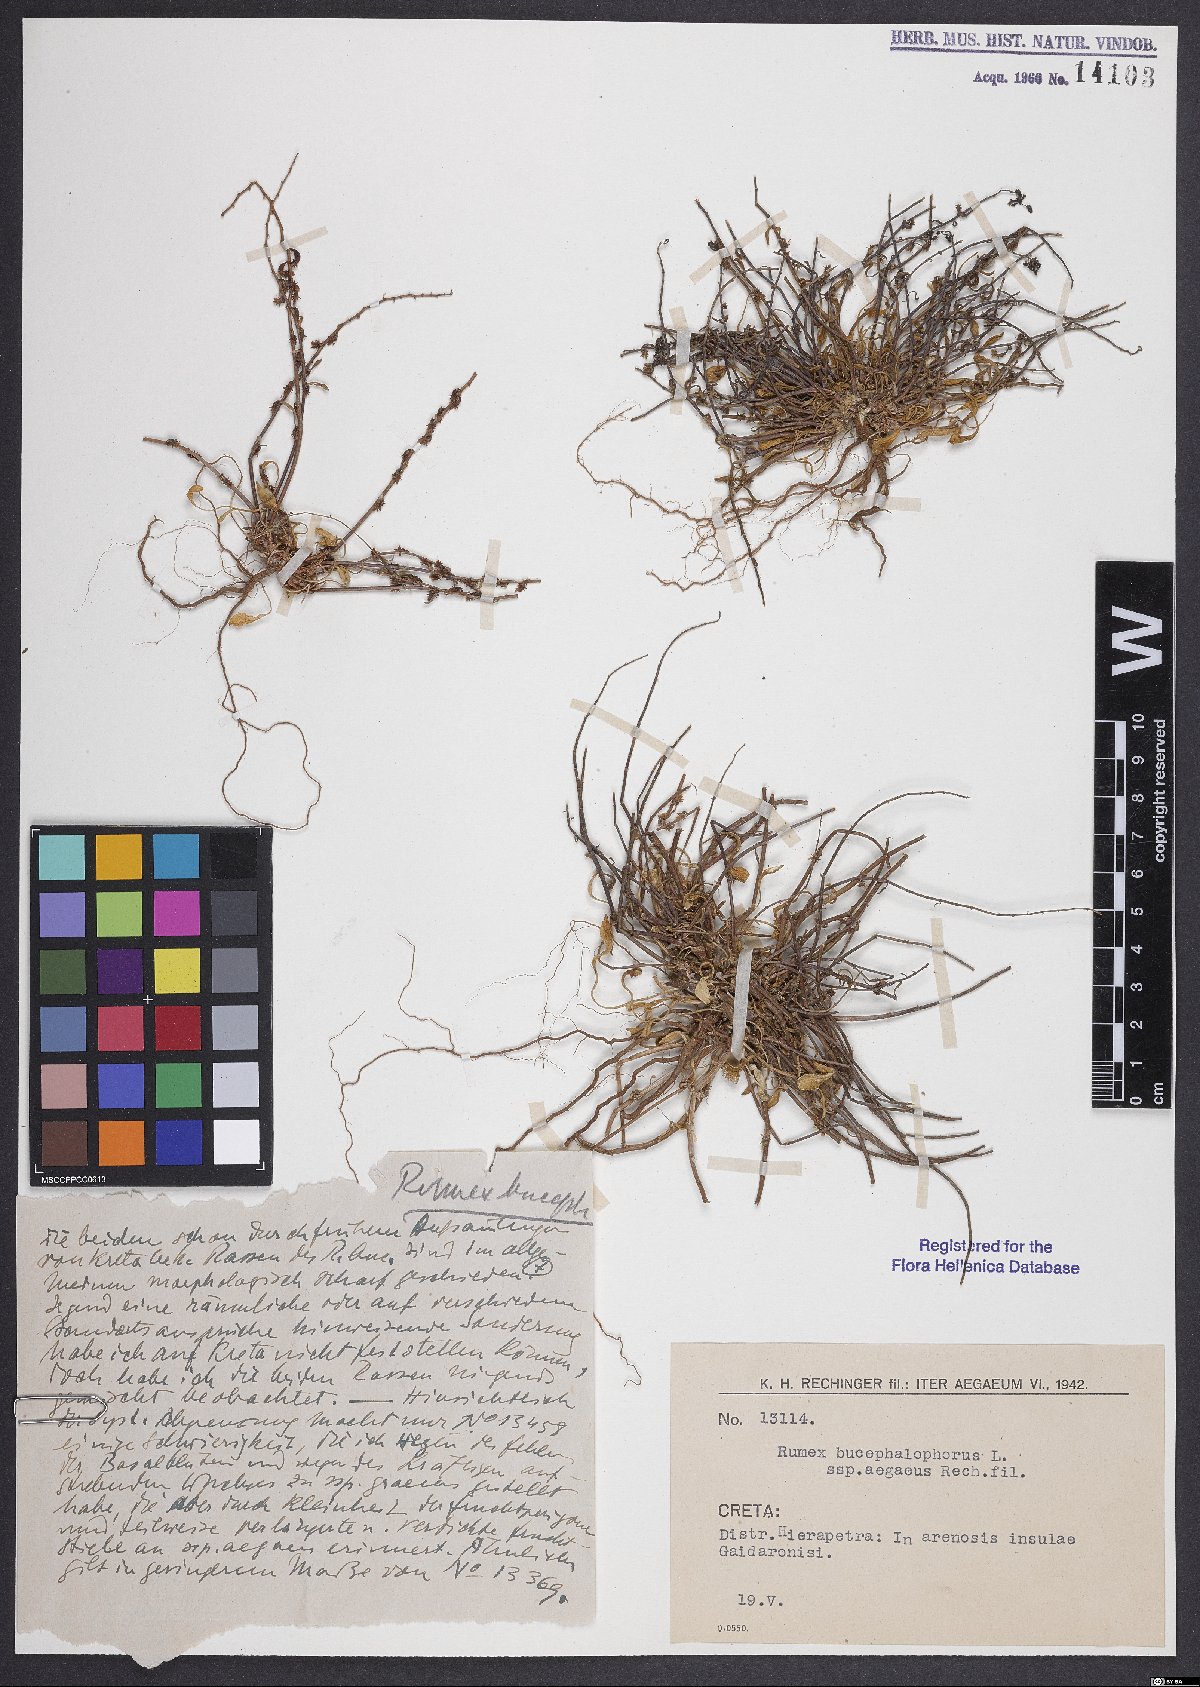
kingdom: Plantae
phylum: Tracheophyta
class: Magnoliopsida
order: Caryophyllales
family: Polygonaceae
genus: Rumex
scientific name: Rumex bucephalophorus
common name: Red dock
